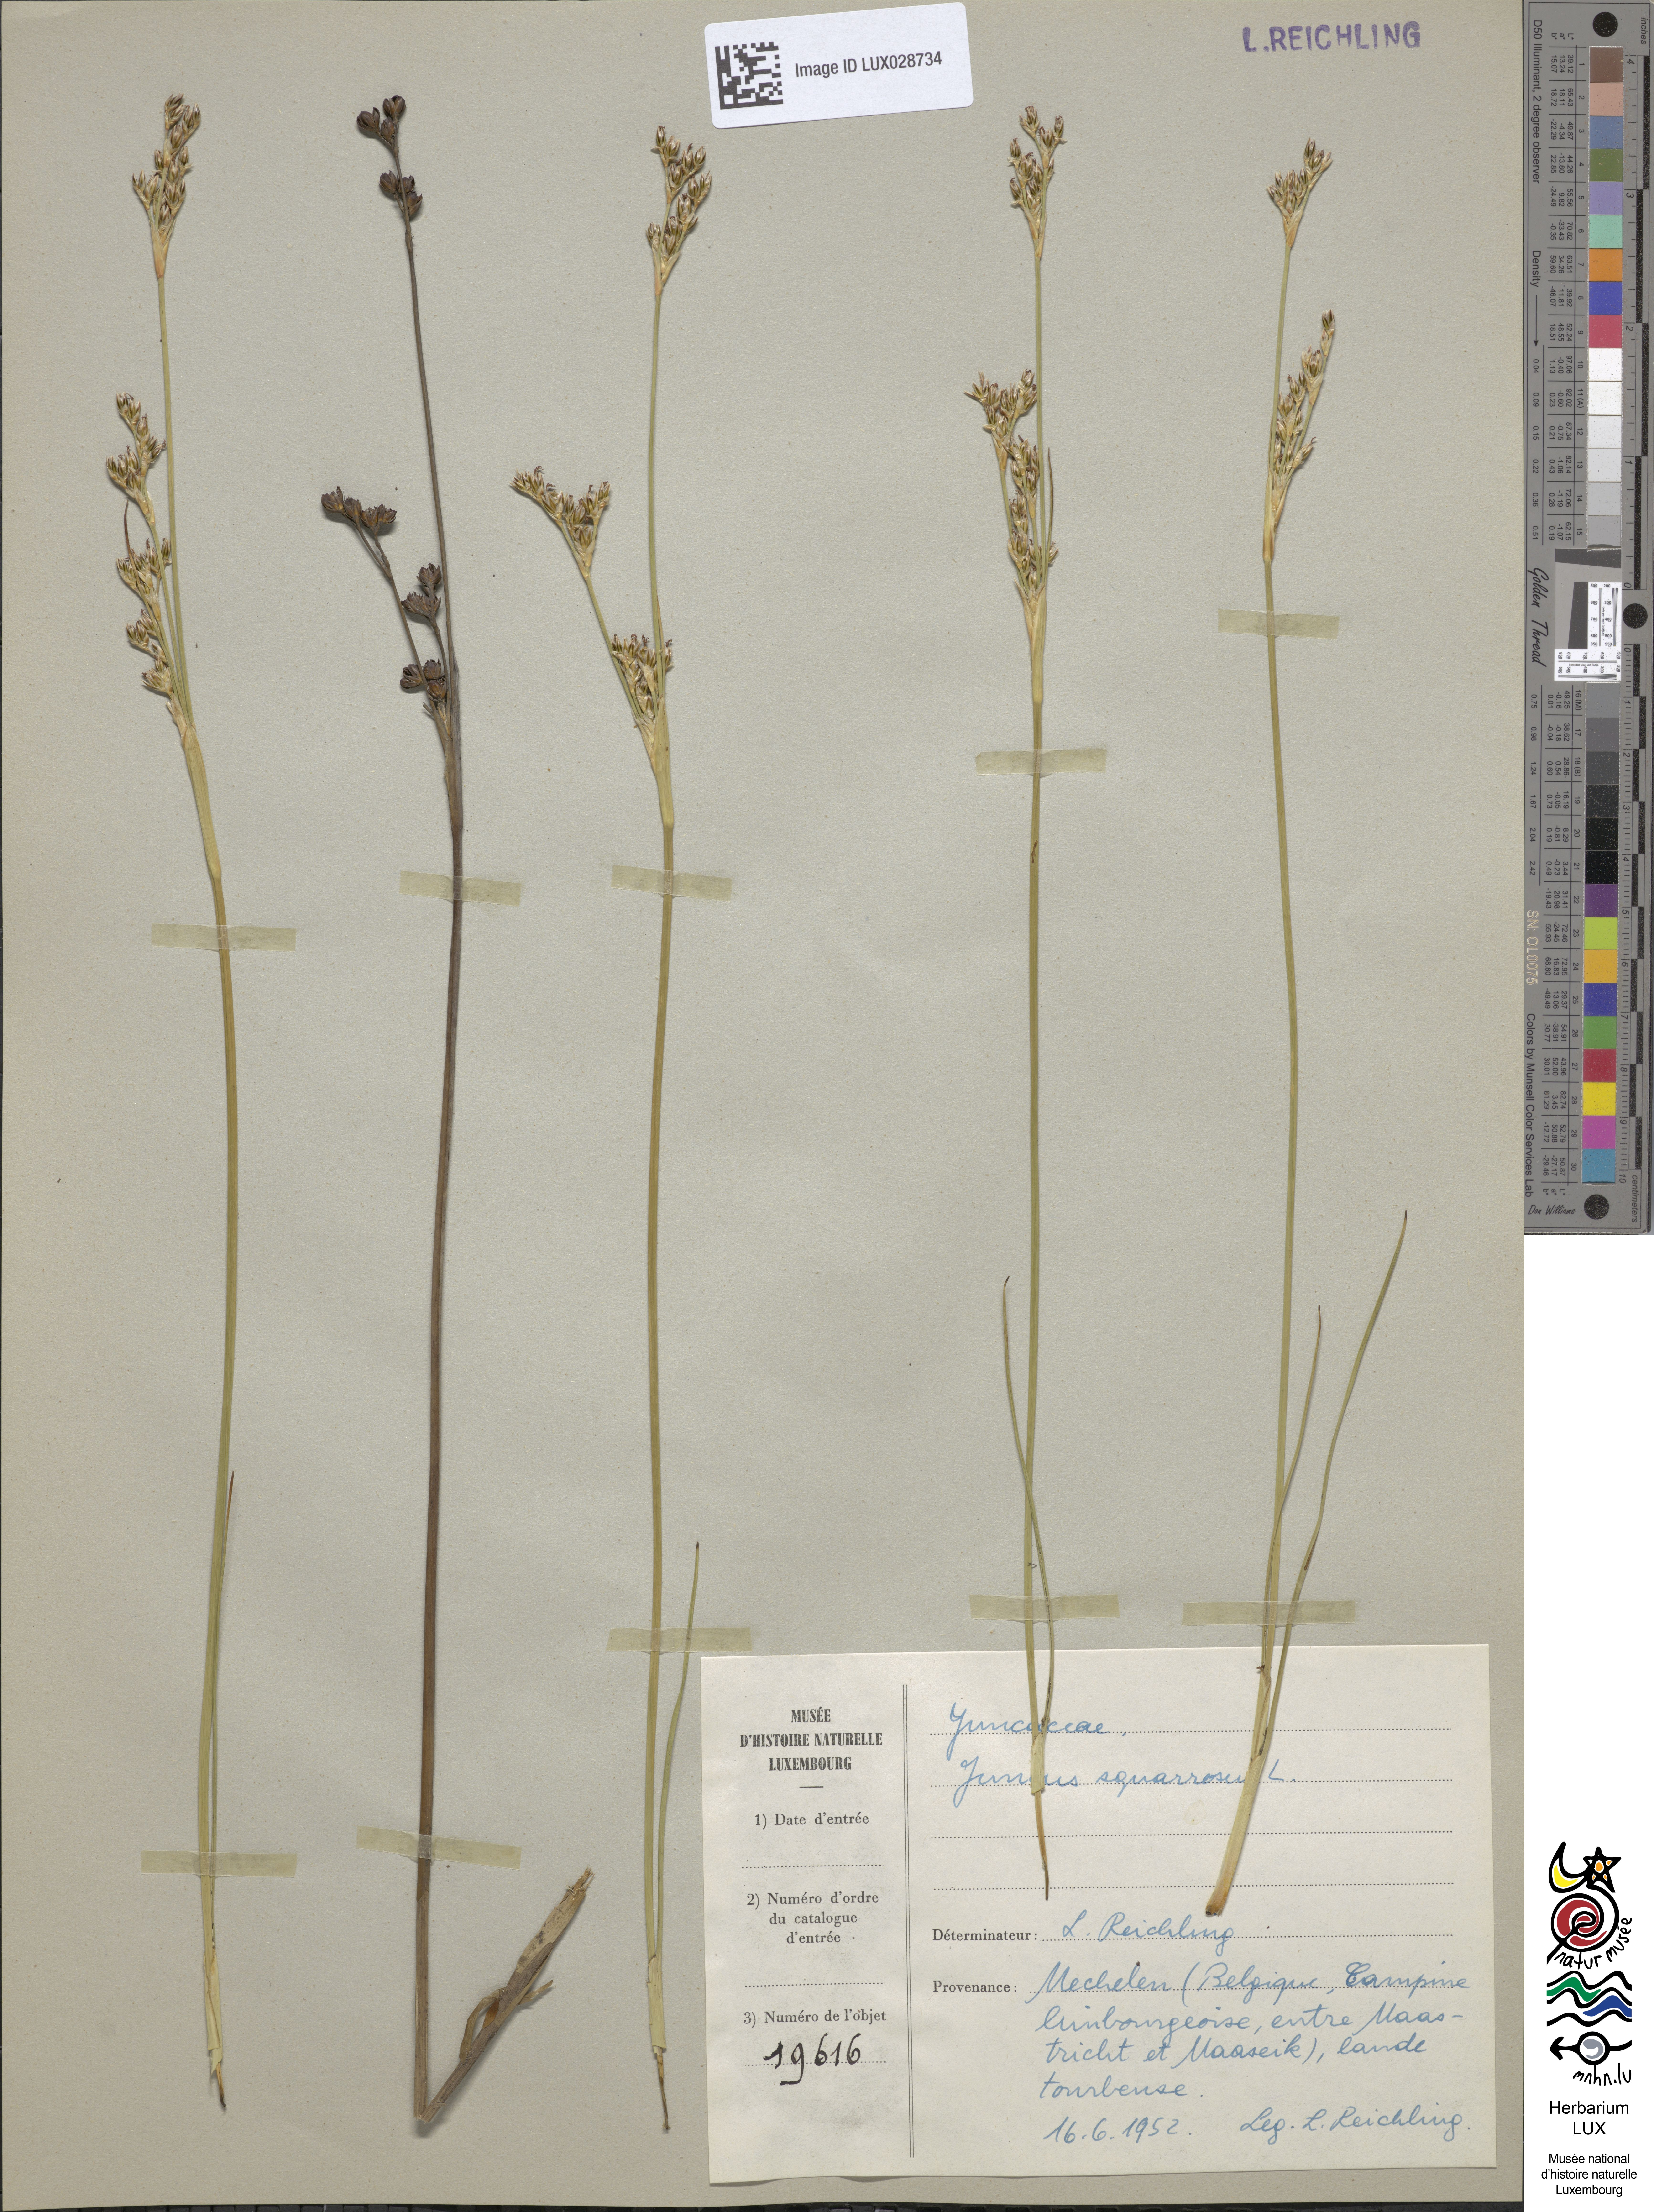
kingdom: Plantae
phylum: Tracheophyta
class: Liliopsida
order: Poales
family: Juncaceae
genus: Juncus
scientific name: Juncus squarrosus
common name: Heath rush
